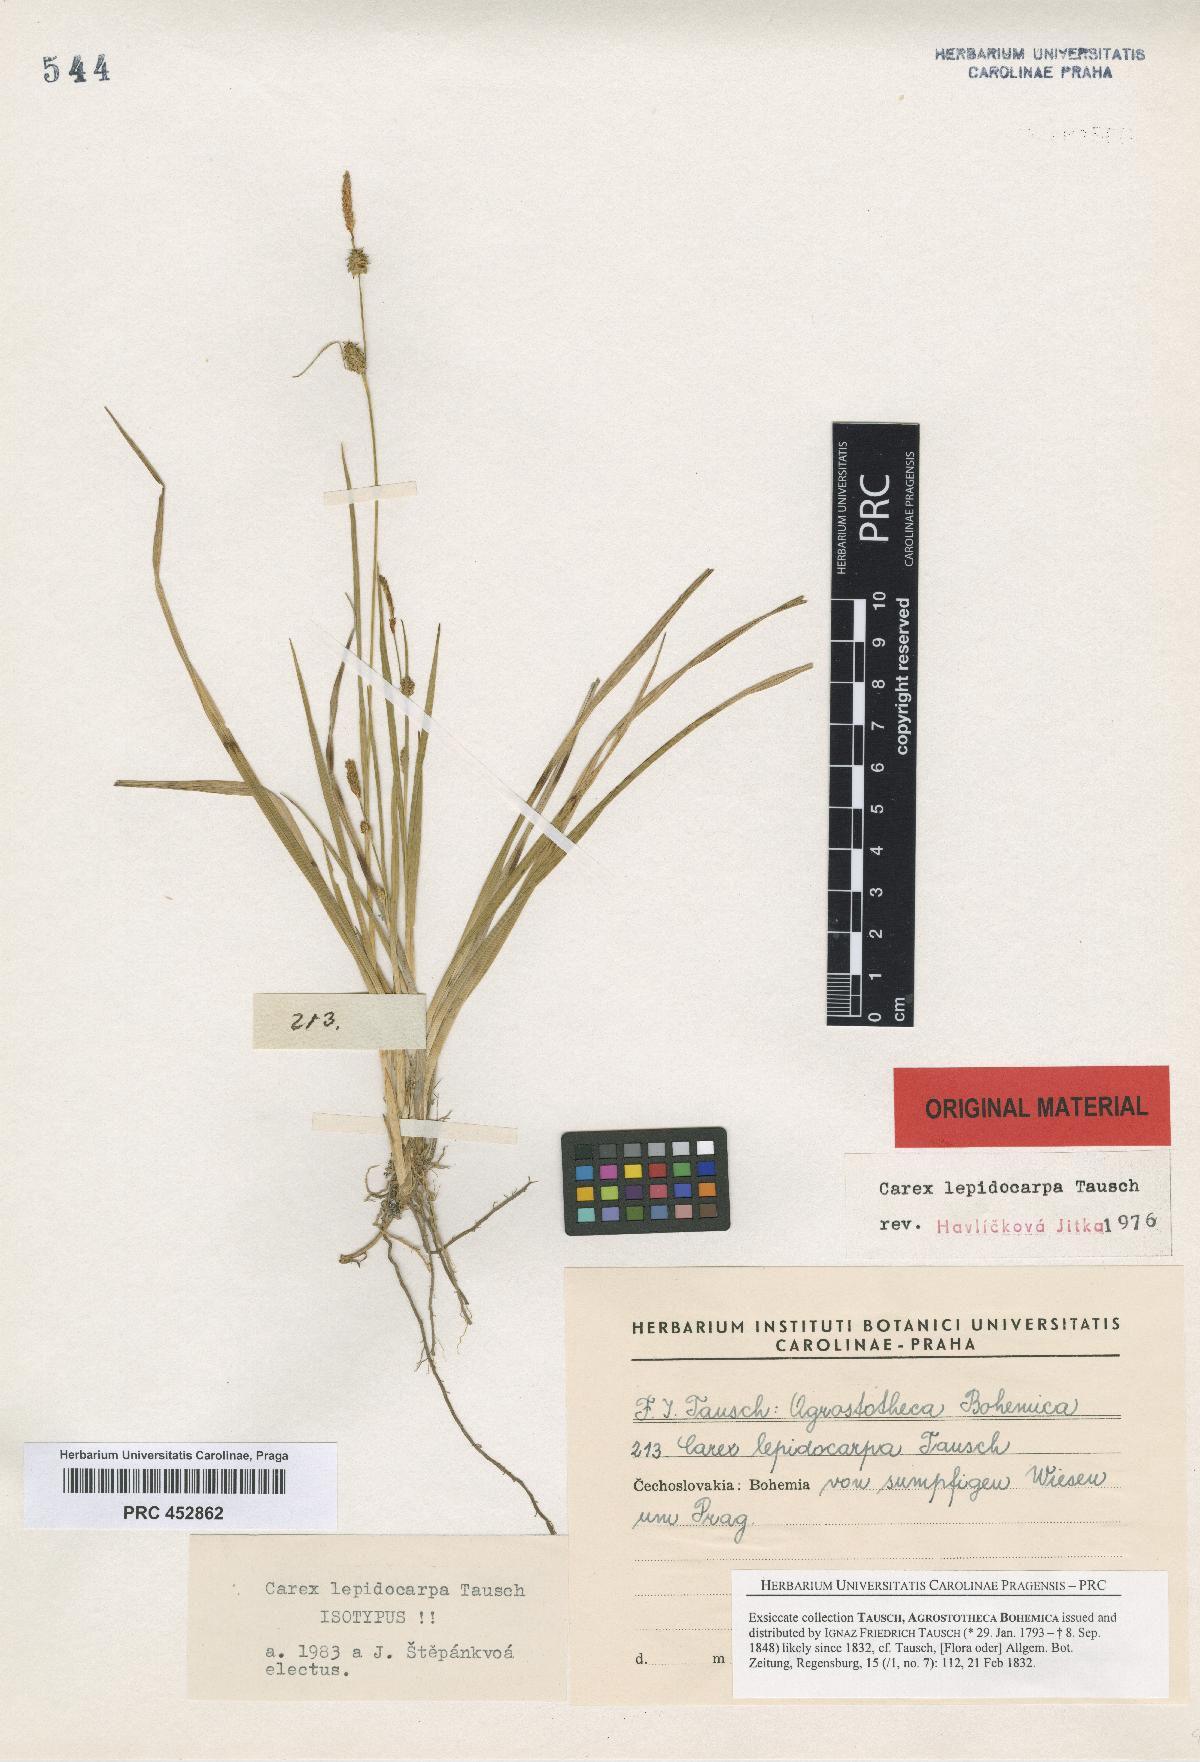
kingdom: Plantae
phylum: Tracheophyta
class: Liliopsida
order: Poales
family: Cyperaceae
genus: Carex
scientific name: Carex lepidocarpa
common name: Long-stalked yellow-sedge
